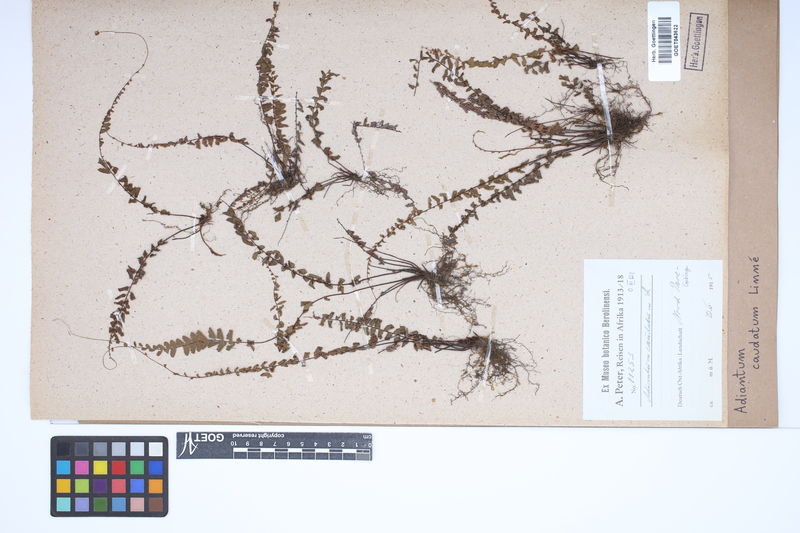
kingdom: Plantae
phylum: Tracheophyta
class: Polypodiopsida
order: Polypodiales
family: Pteridaceae
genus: Adiantum
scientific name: Adiantum caudatum
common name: Tailed maidenhair
